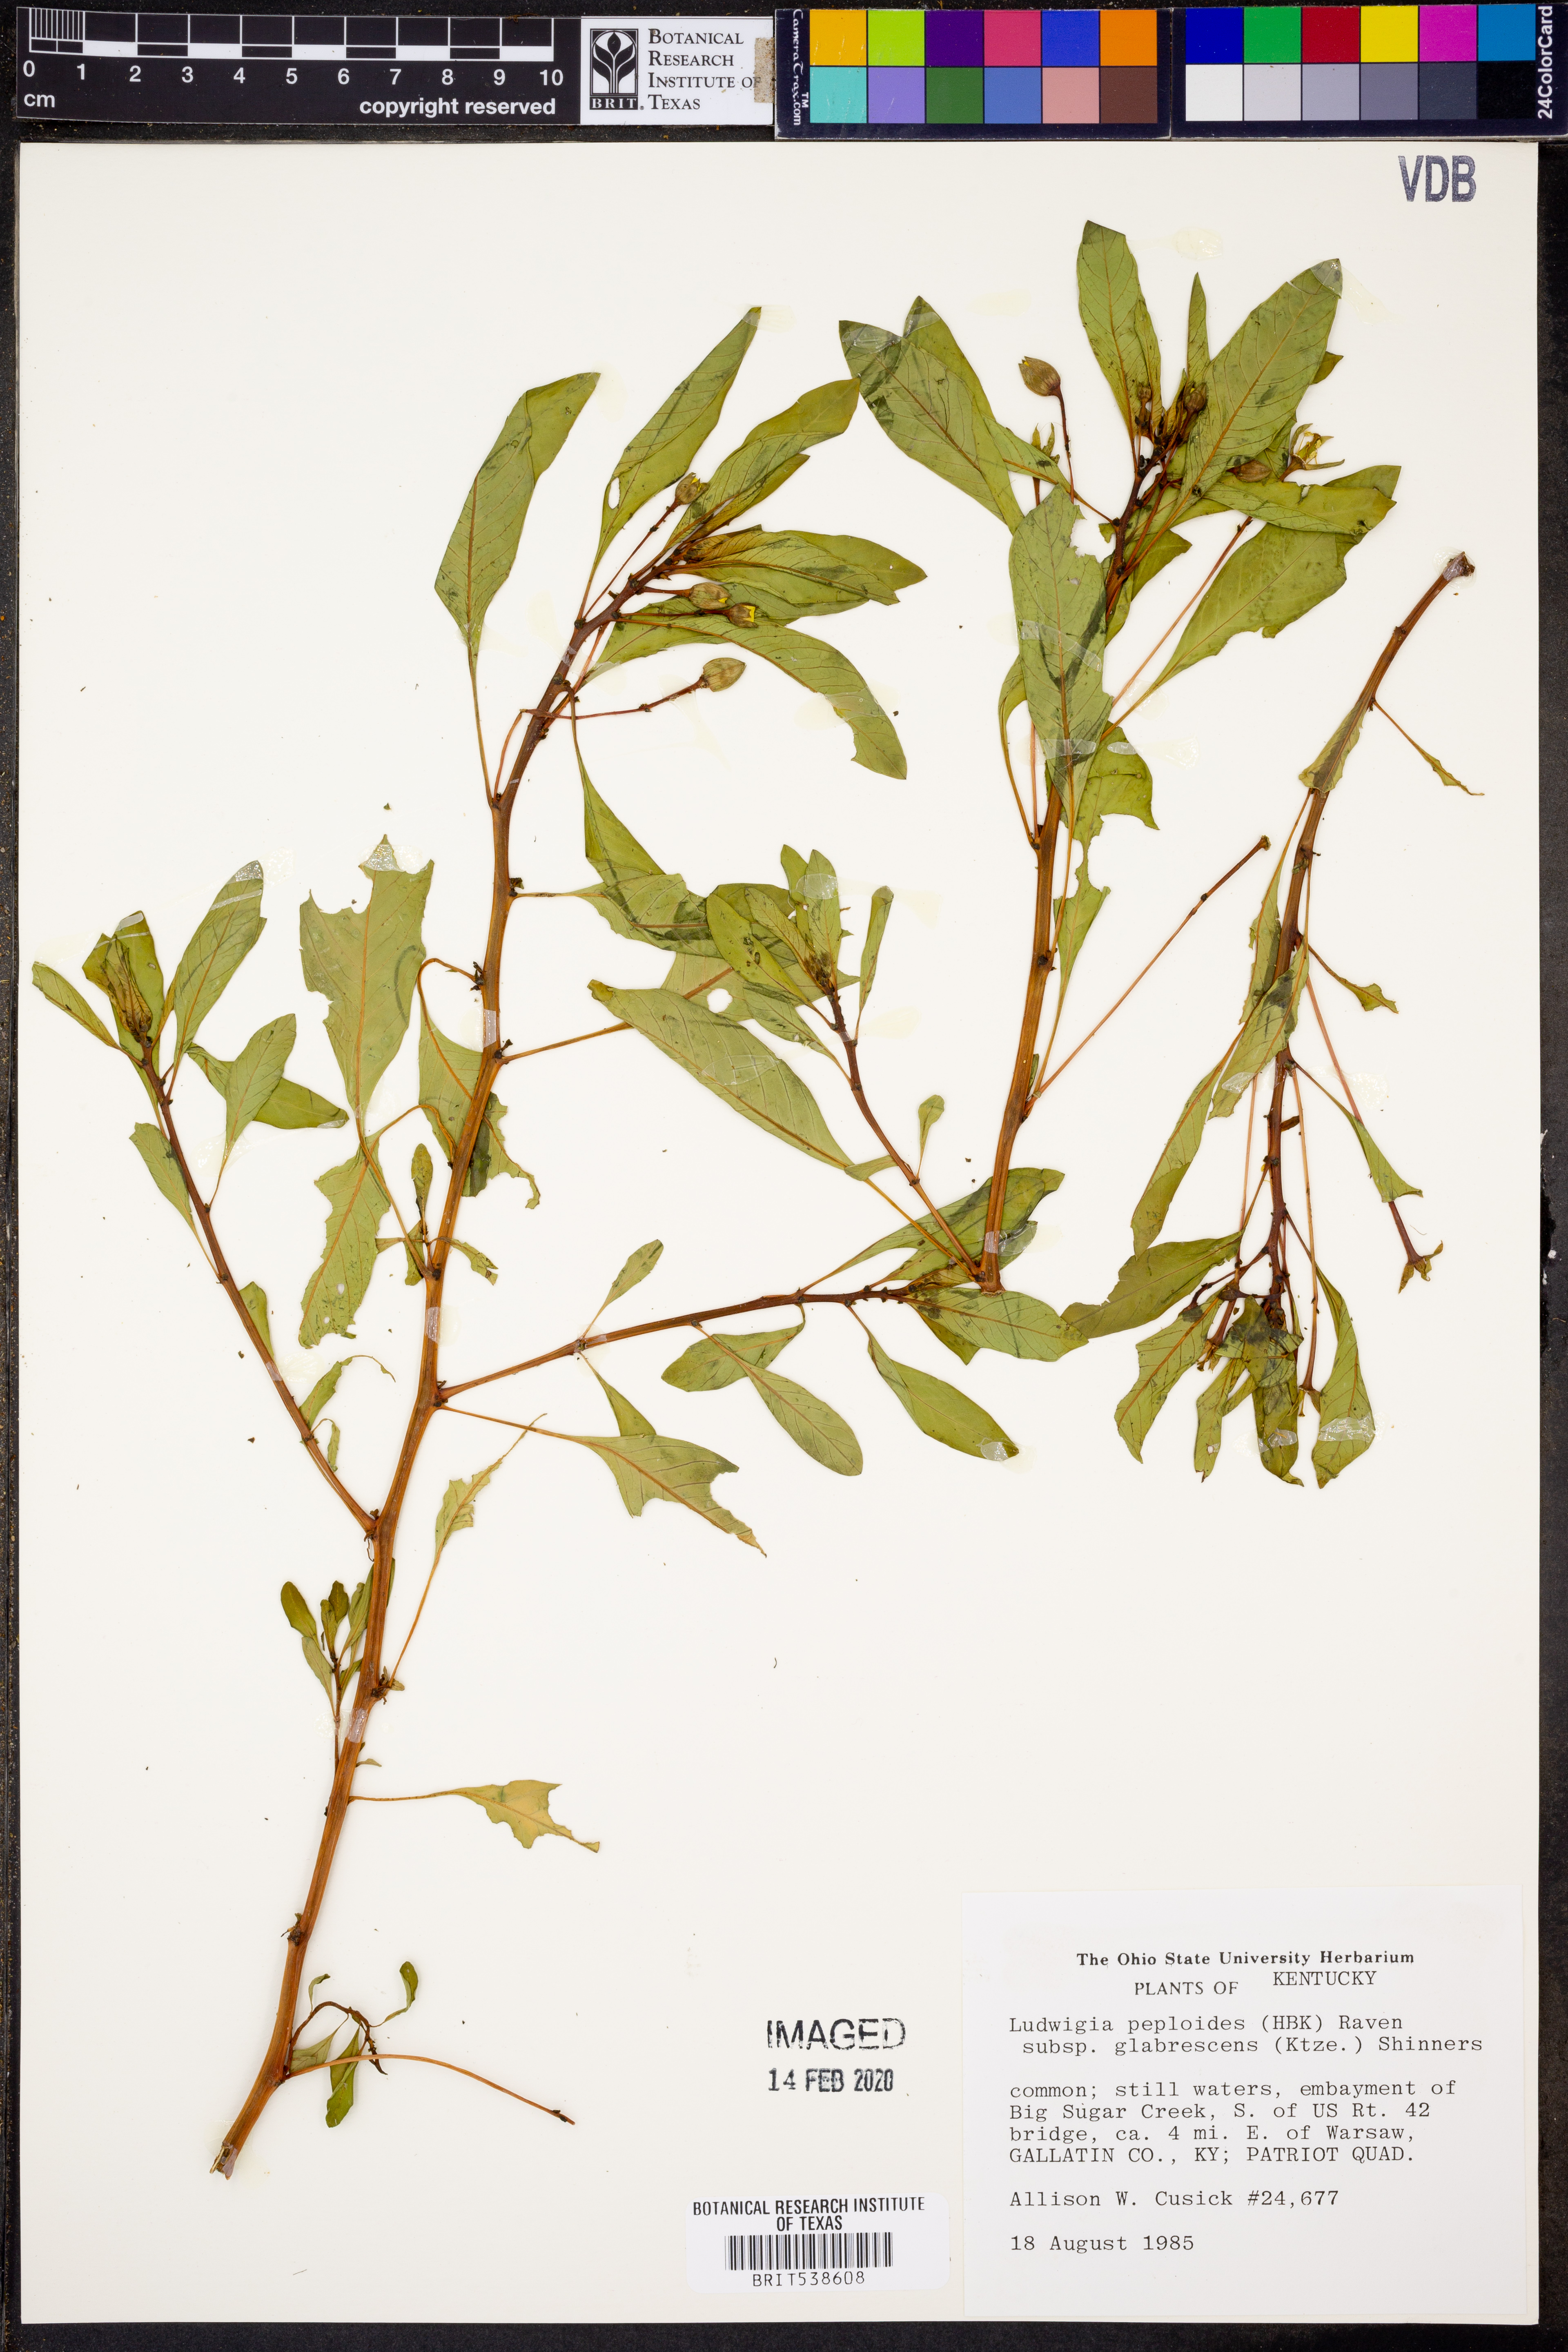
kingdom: Plantae
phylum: Tracheophyta
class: Magnoliopsida
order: Myrtales
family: Onagraceae
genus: Ludwigia
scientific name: Ludwigia peploides
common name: Floating primrose-willow
